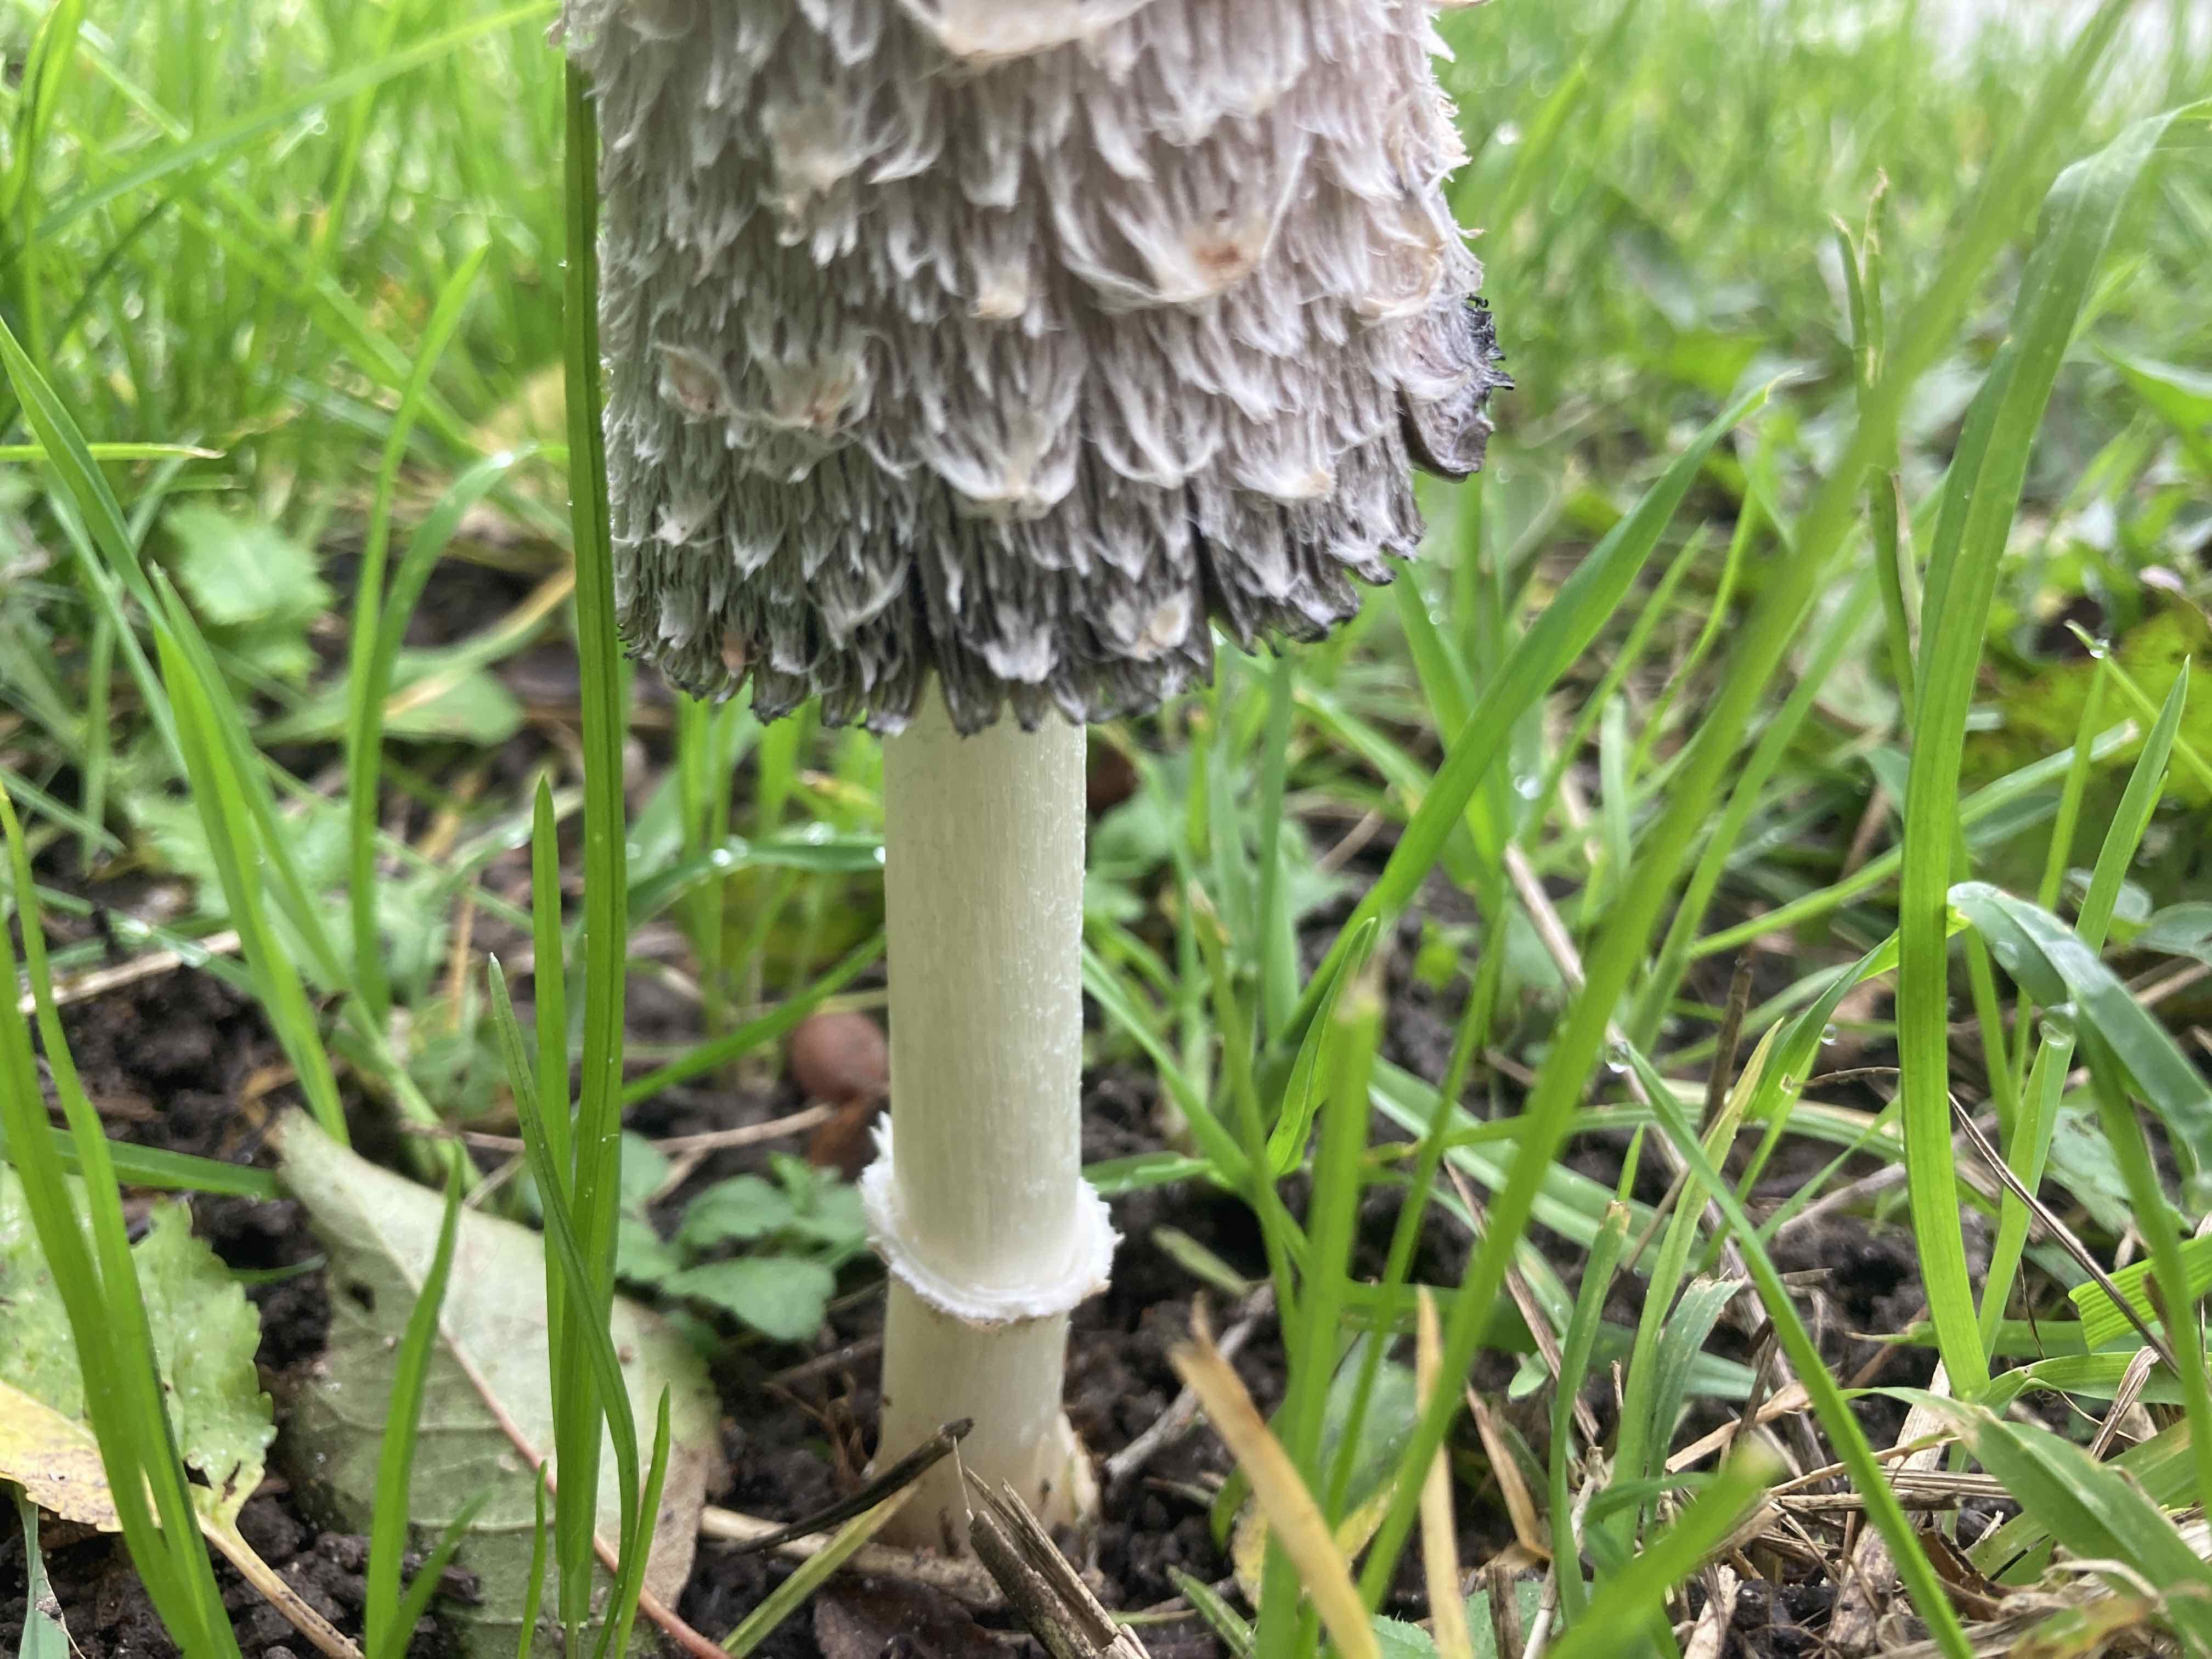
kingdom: Fungi
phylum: Basidiomycota
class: Agaricomycetes
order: Agaricales
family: Agaricaceae
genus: Coprinus
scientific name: Coprinus comatus
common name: stor parykhat
